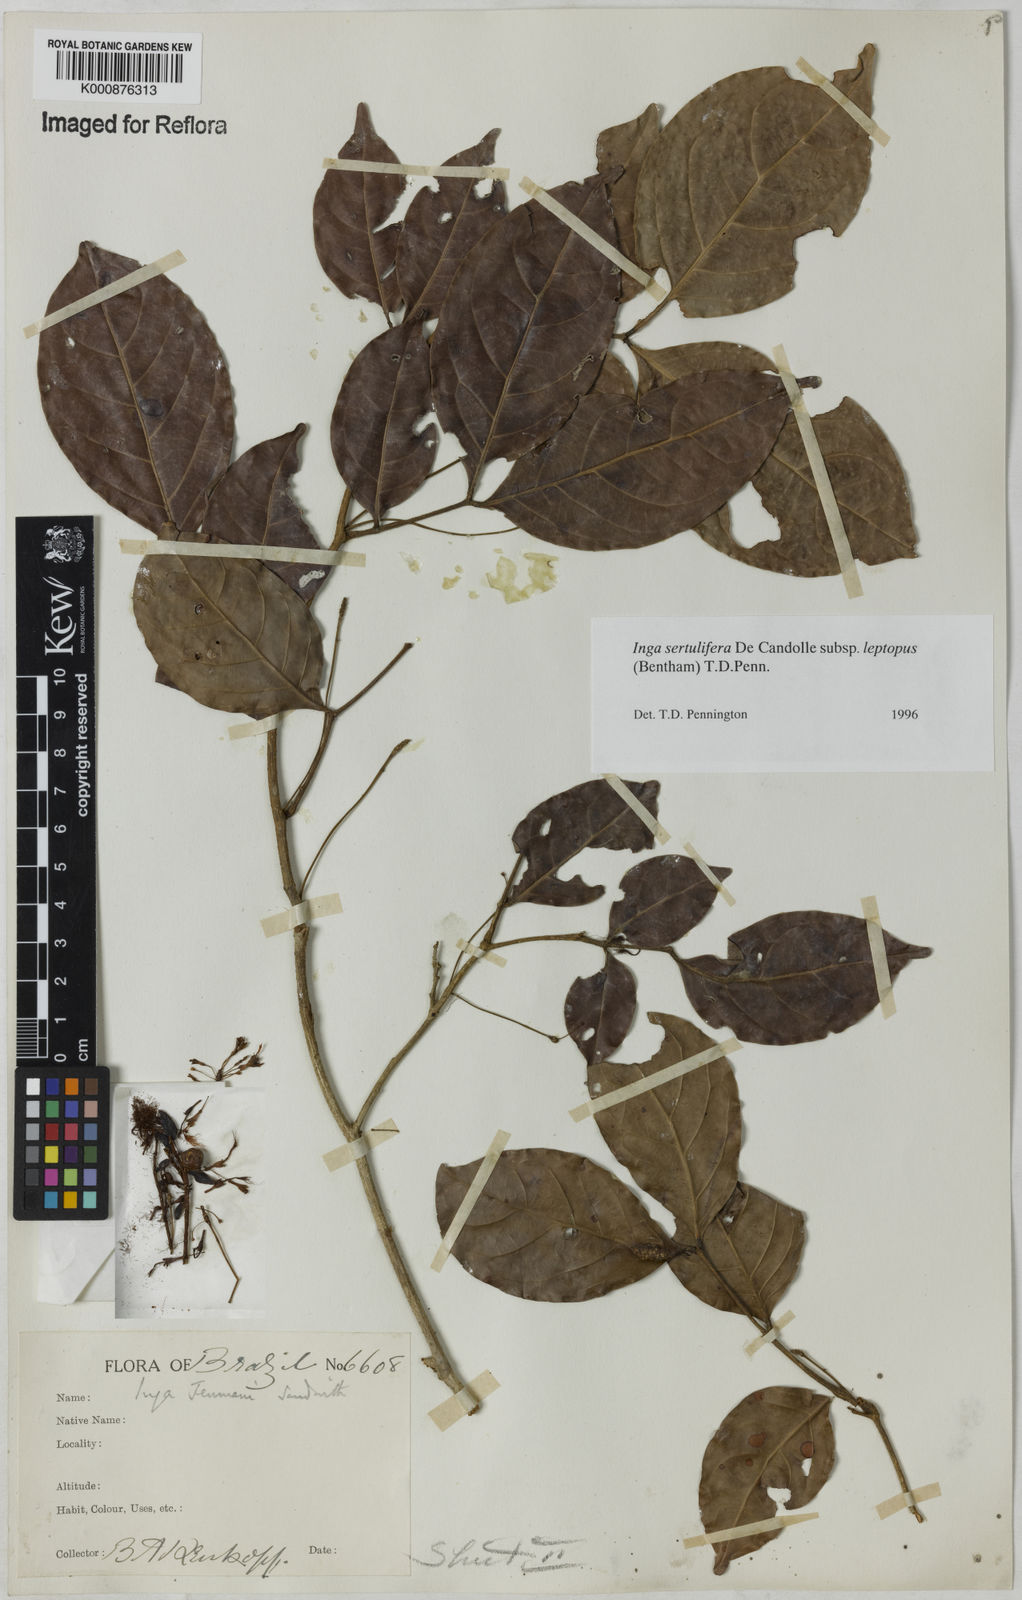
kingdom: Plantae
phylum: Tracheophyta
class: Magnoliopsida
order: Fabales
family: Fabaceae
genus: Inga
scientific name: Inga sertulifera
